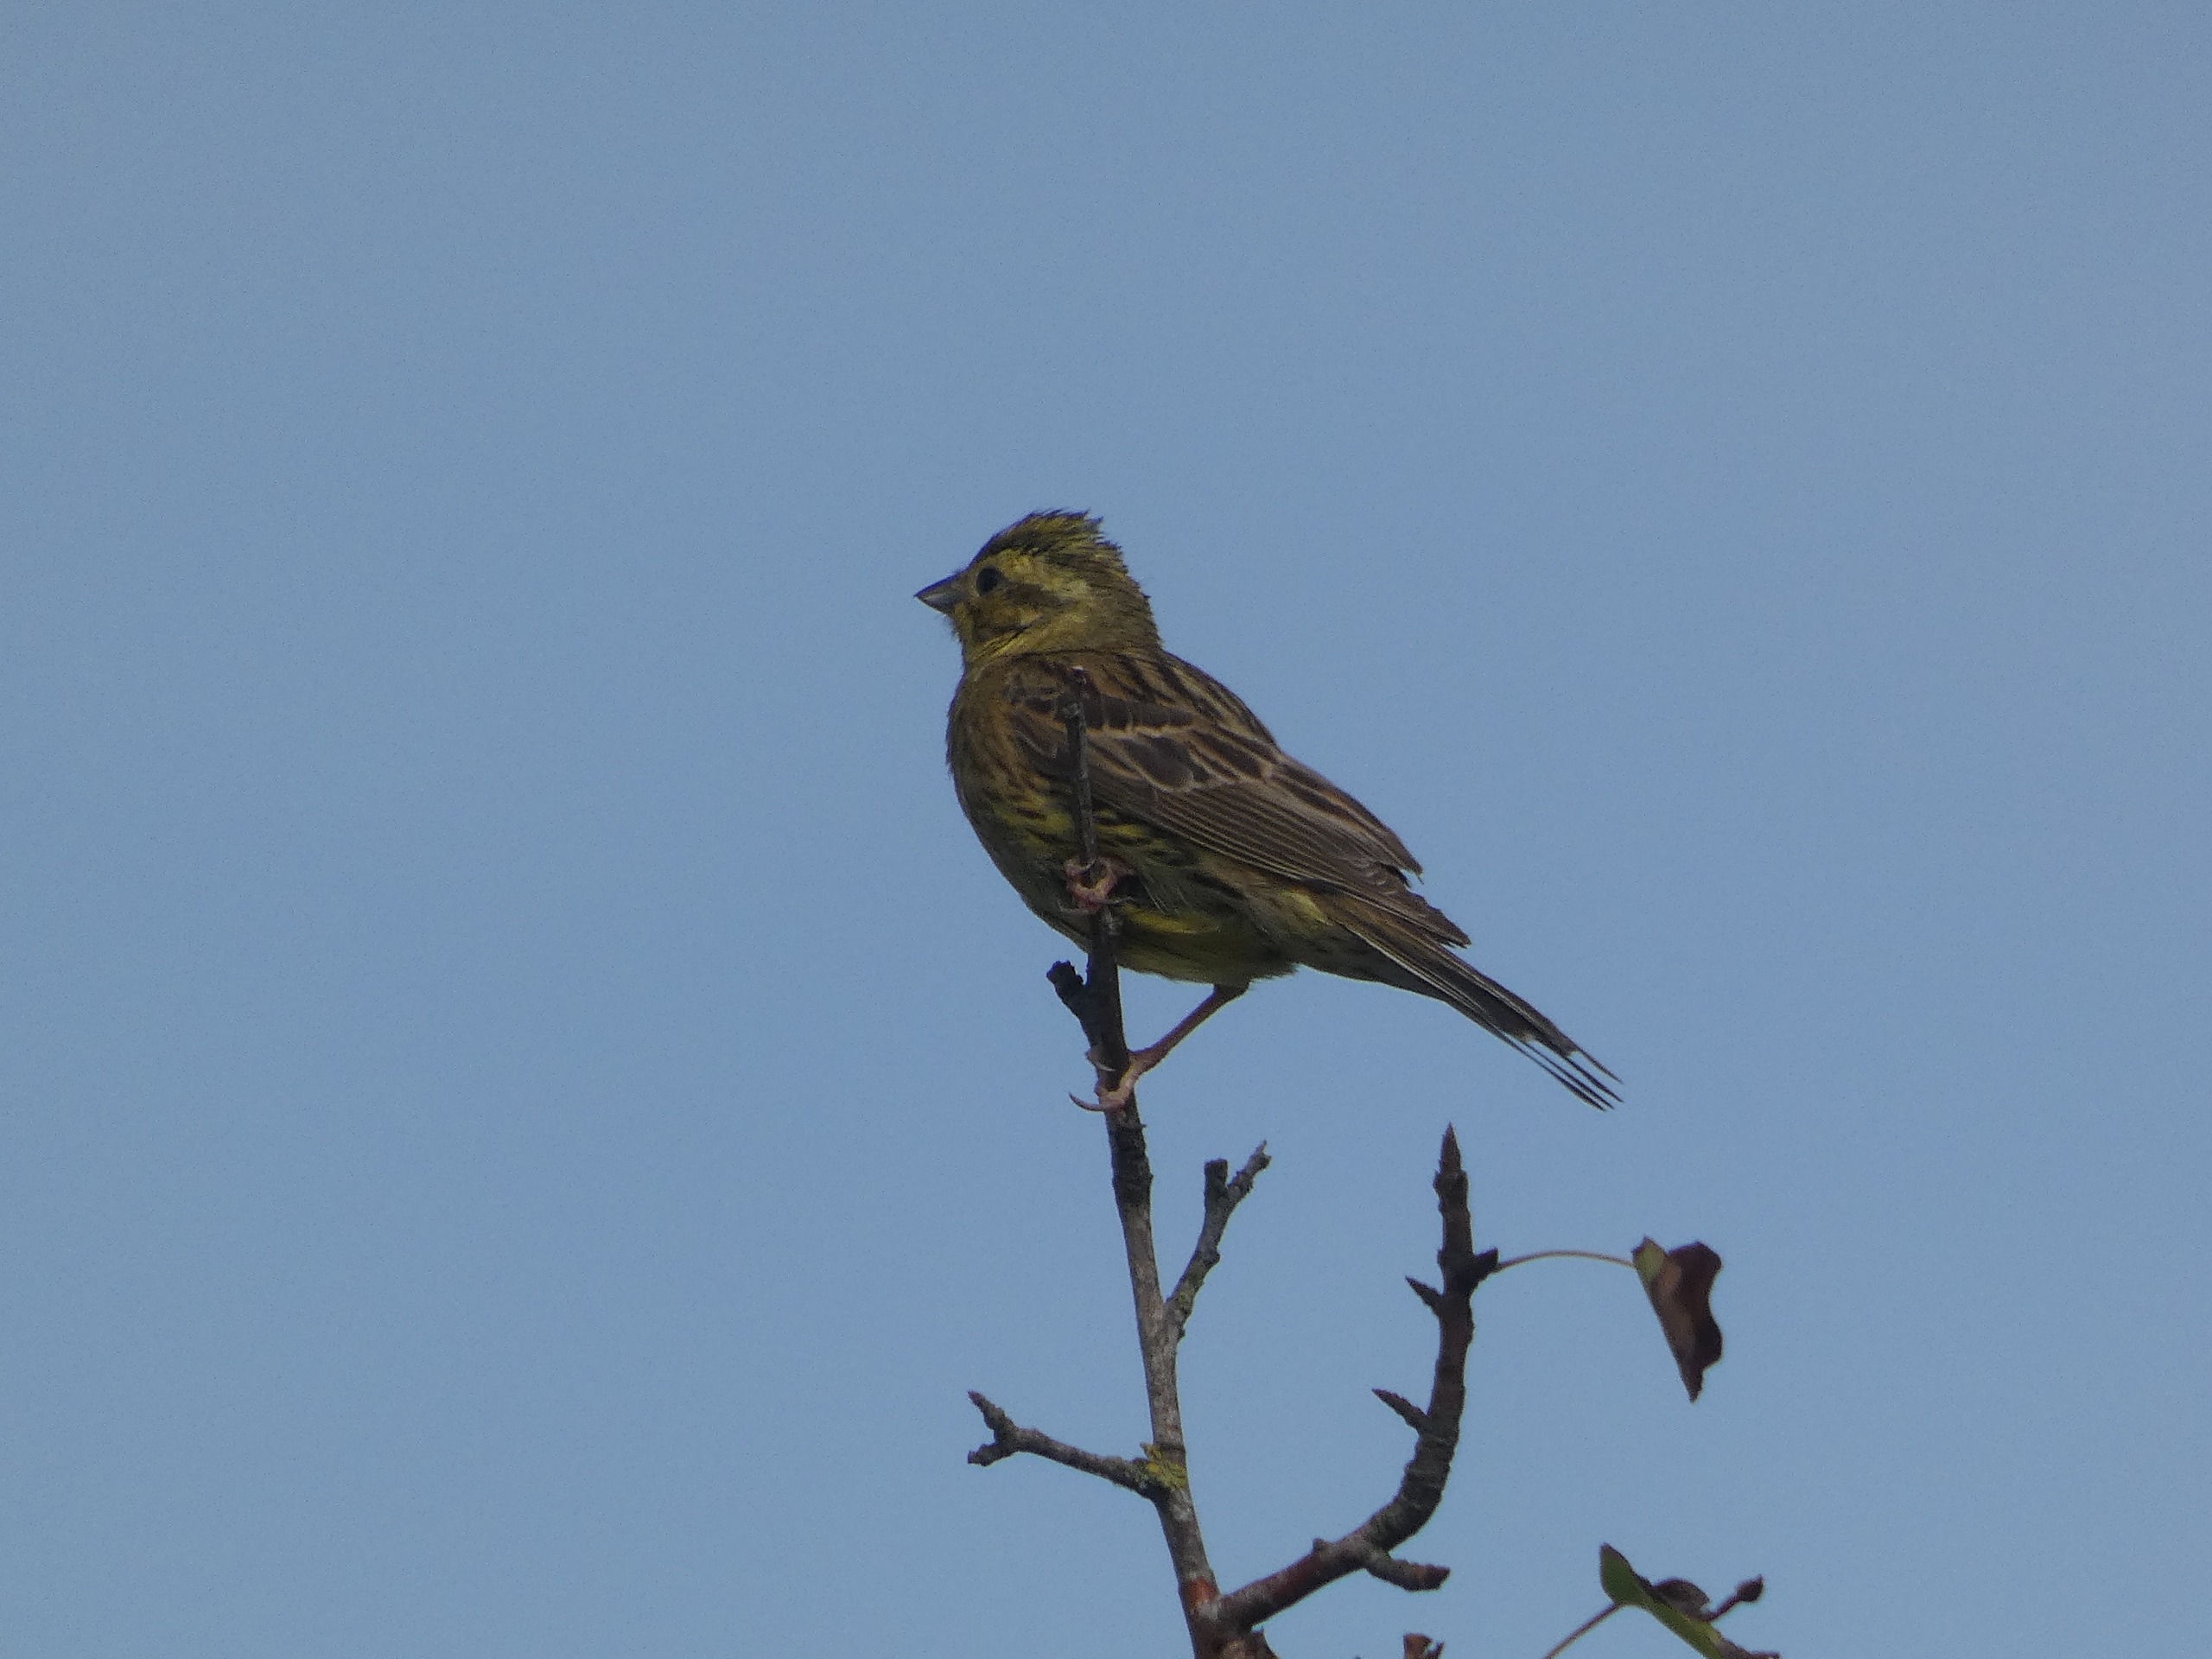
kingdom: Animalia
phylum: Chordata
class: Aves
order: Passeriformes
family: Emberizidae
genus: Emberiza
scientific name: Emberiza citrinella
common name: Gulspurv
